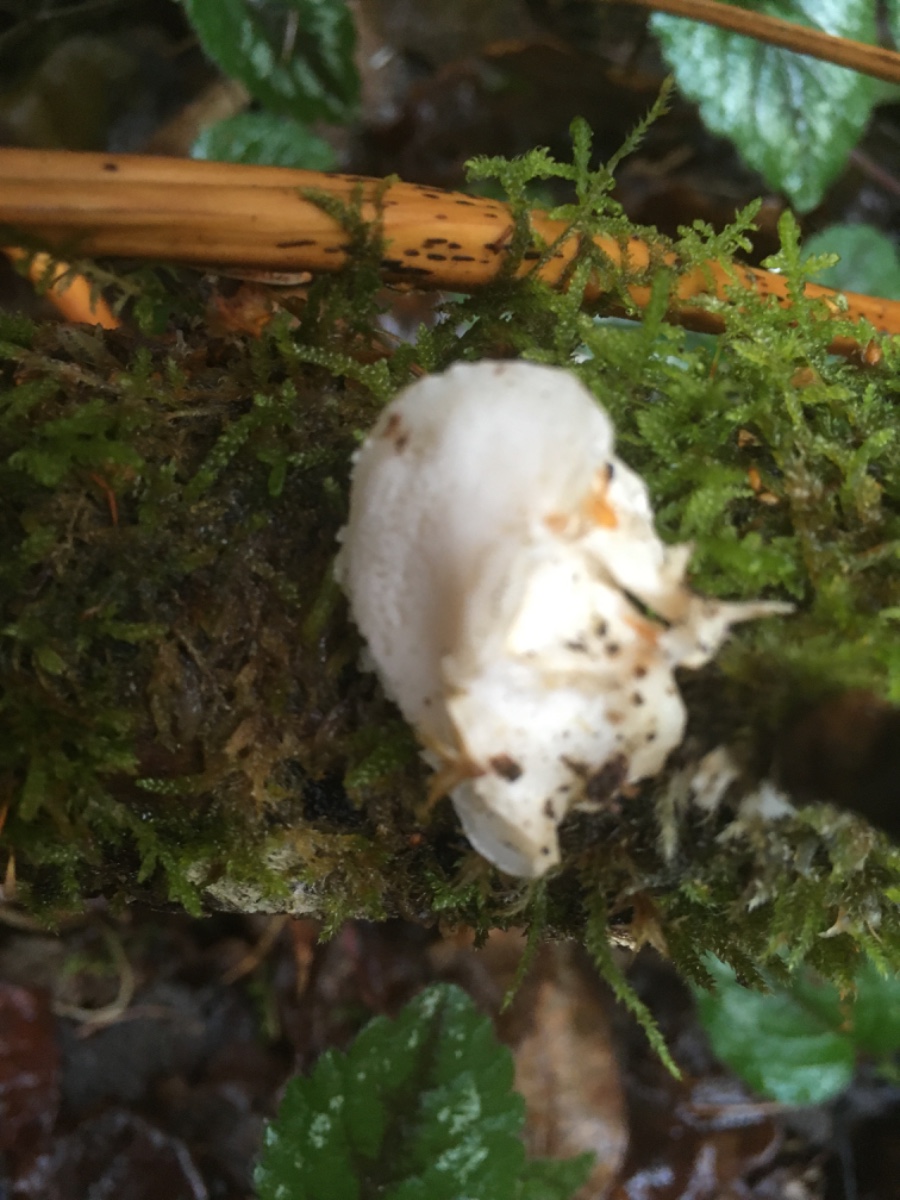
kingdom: Fungi
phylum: Basidiomycota
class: Agaricomycetes
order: Polyporales
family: Dacryobolaceae
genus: Postia
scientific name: Postia
